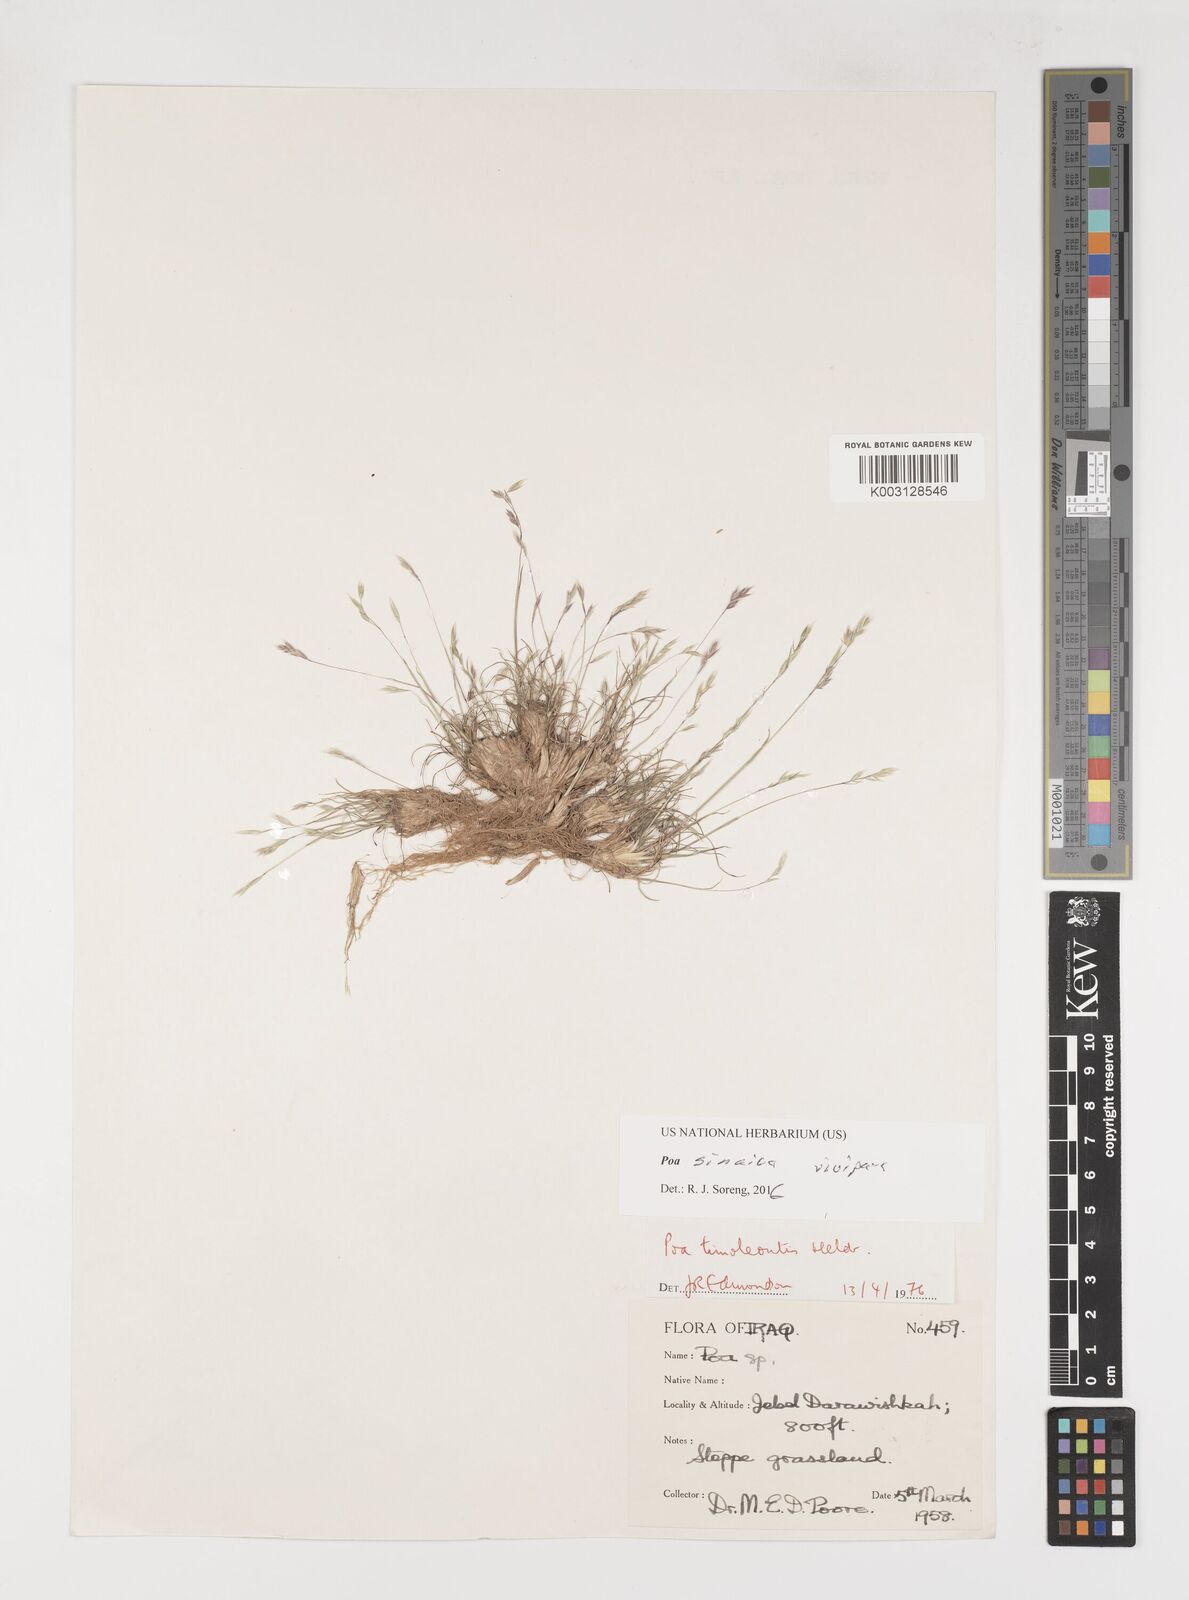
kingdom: Plantae
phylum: Tracheophyta
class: Liliopsida
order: Poales
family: Poaceae
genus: Poa
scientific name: Poa timoleontis
